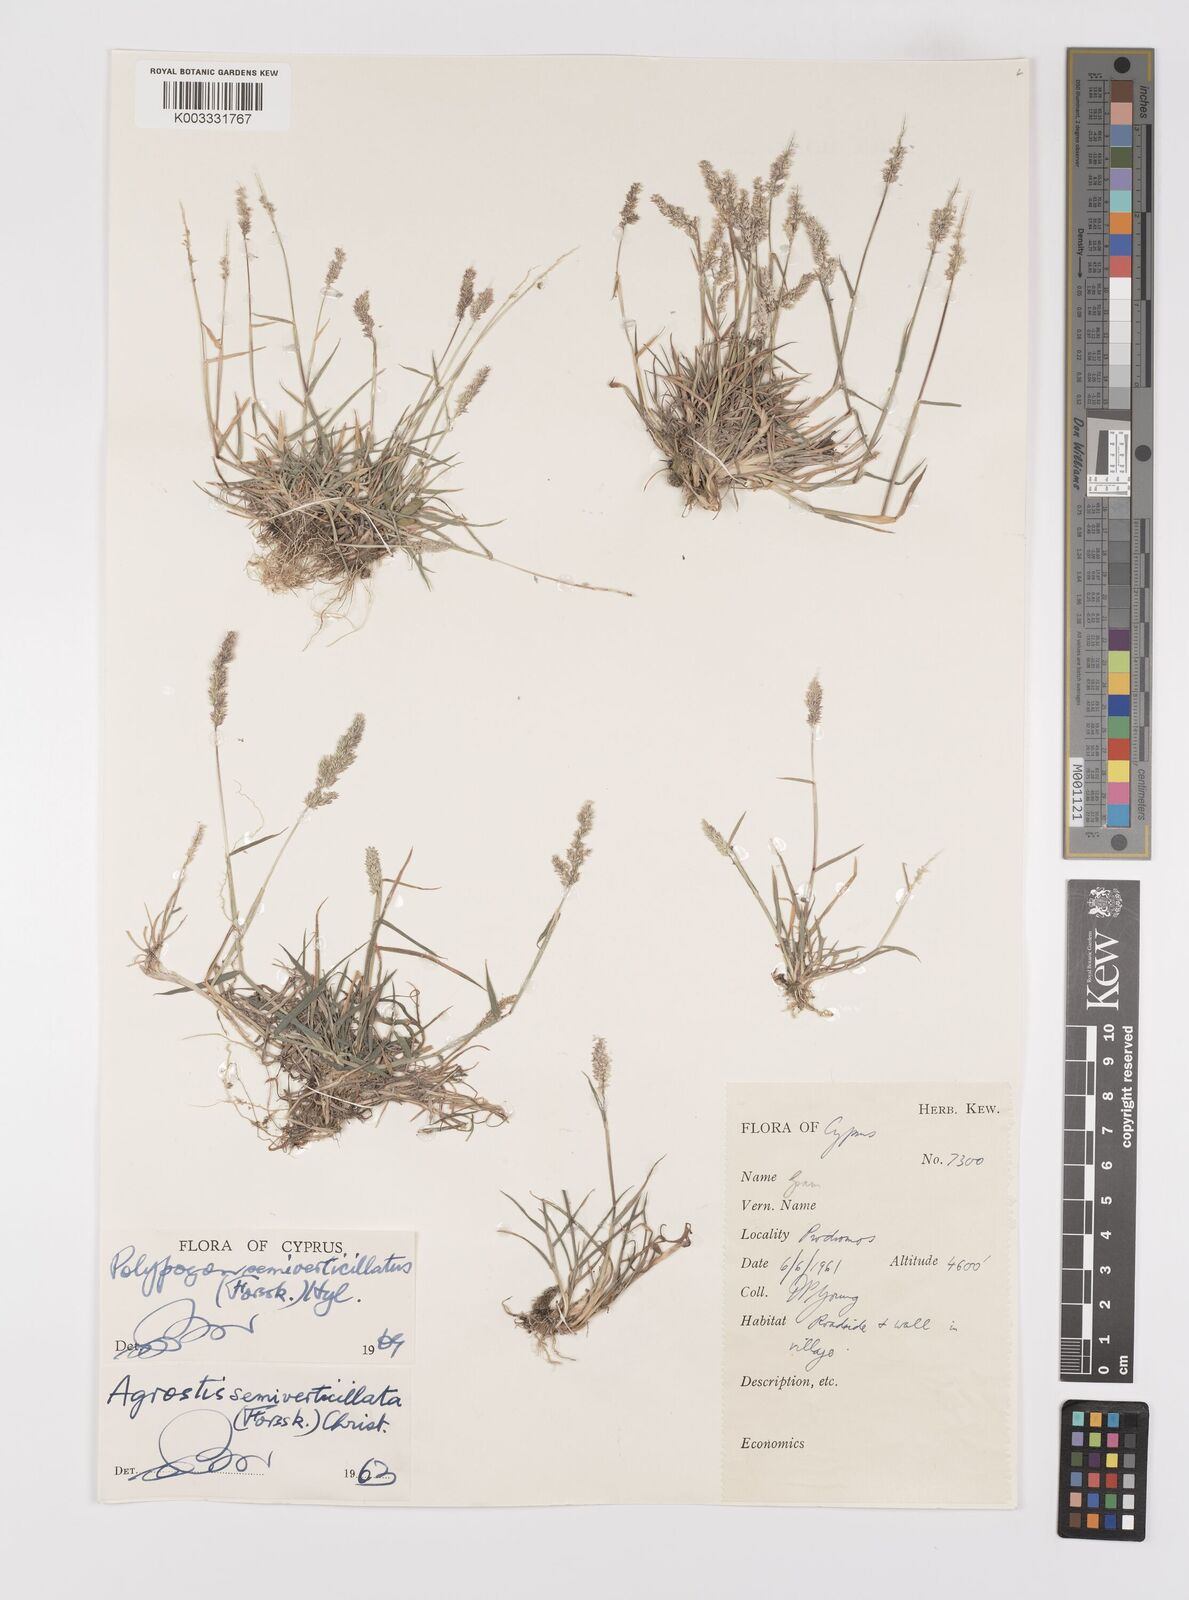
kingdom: Plantae
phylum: Tracheophyta
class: Liliopsida
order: Poales
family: Poaceae
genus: Polypogon
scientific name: Polypogon viridis
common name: Water bent
